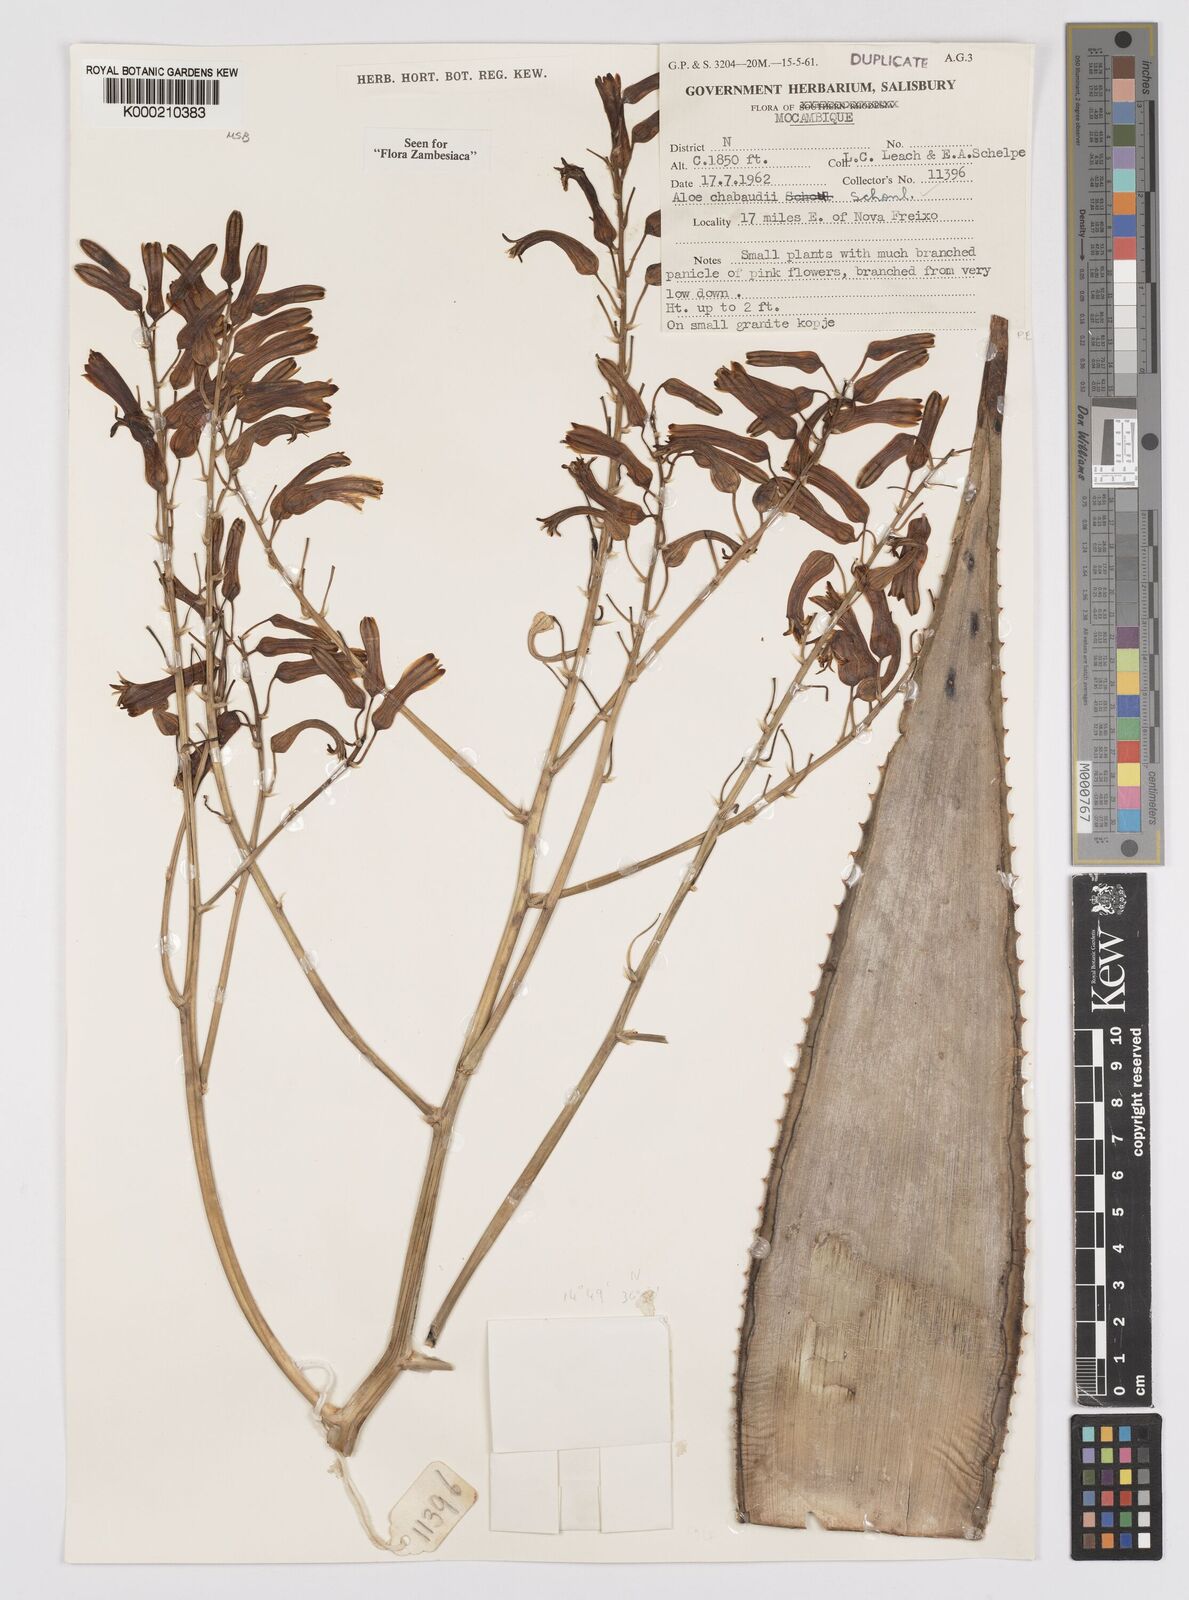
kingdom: Plantae
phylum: Tracheophyta
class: Liliopsida
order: Asparagales
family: Asphodelaceae
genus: Aloe
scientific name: Aloe chabaudii
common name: Chabaud's aloe
